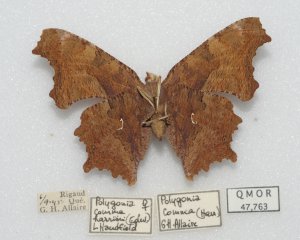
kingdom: Animalia
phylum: Arthropoda
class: Insecta
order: Lepidoptera
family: Nymphalidae
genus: Polygonia
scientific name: Polygonia comma
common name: Eastern Comma
